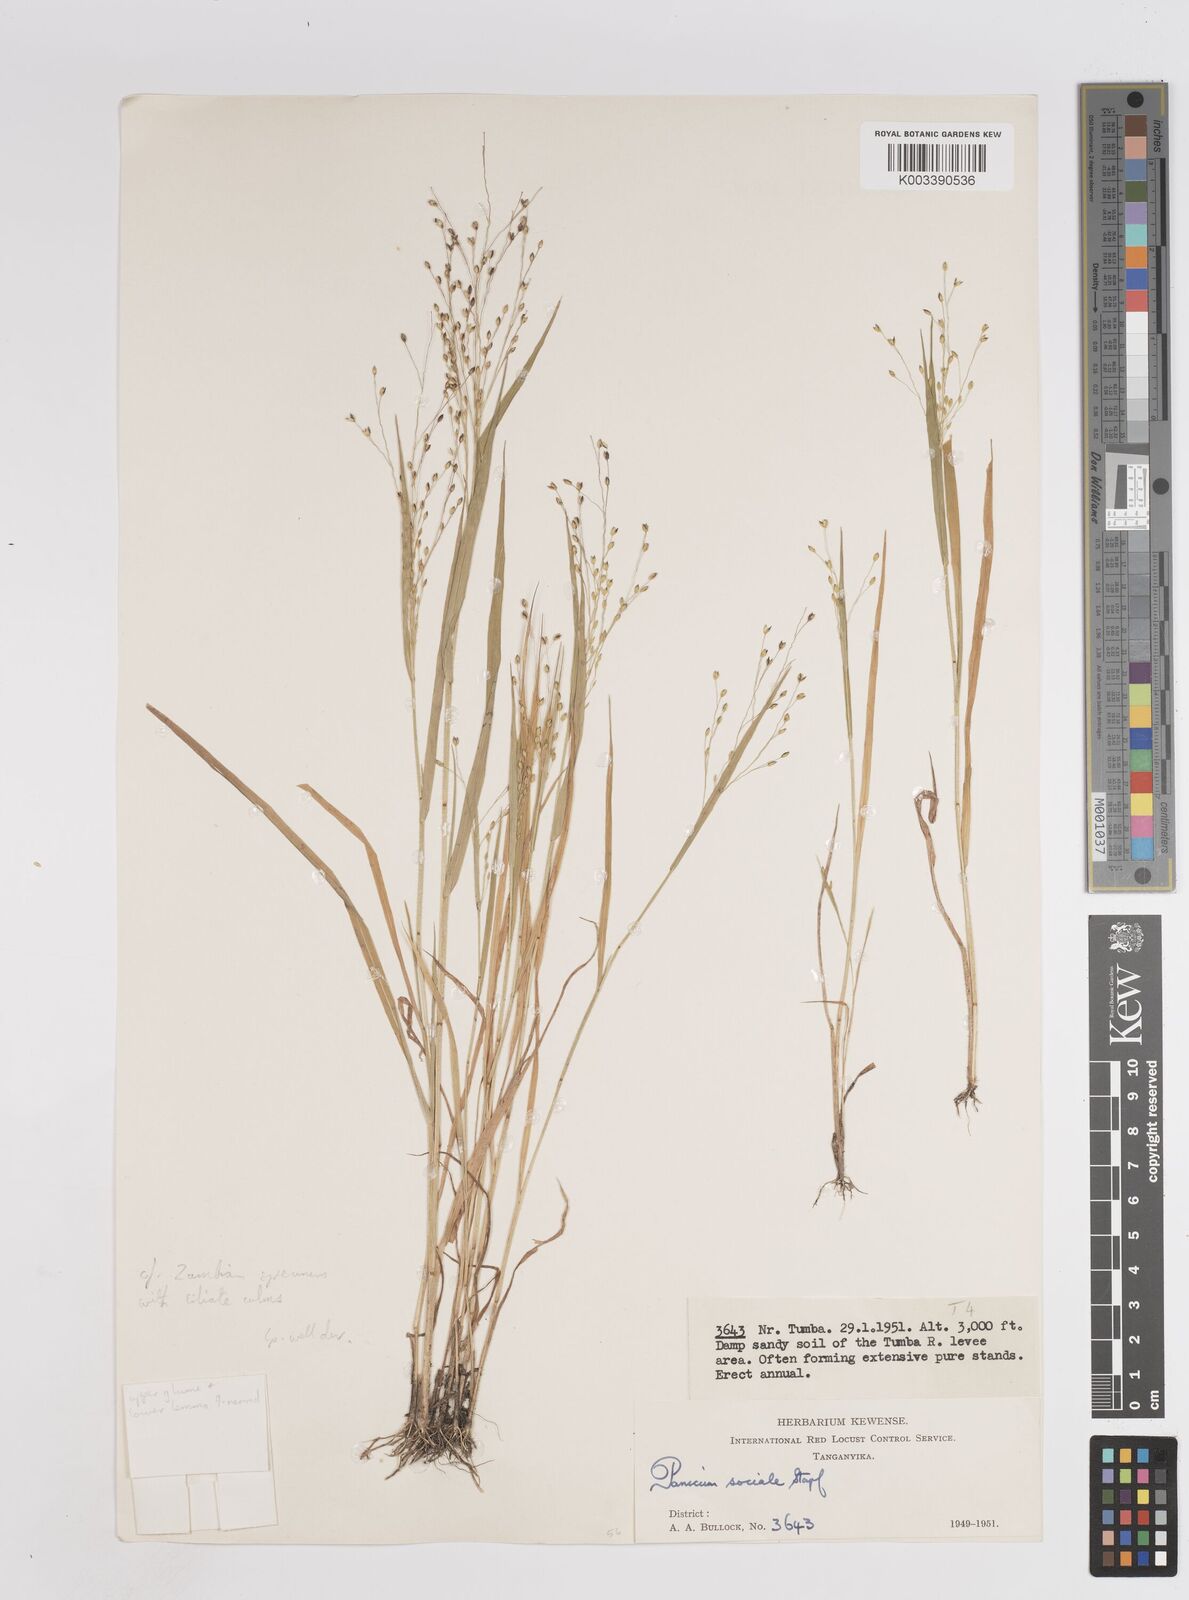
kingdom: Plantae
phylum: Tracheophyta
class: Liliopsida
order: Poales
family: Poaceae
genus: Panicum
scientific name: Panicum laetum
